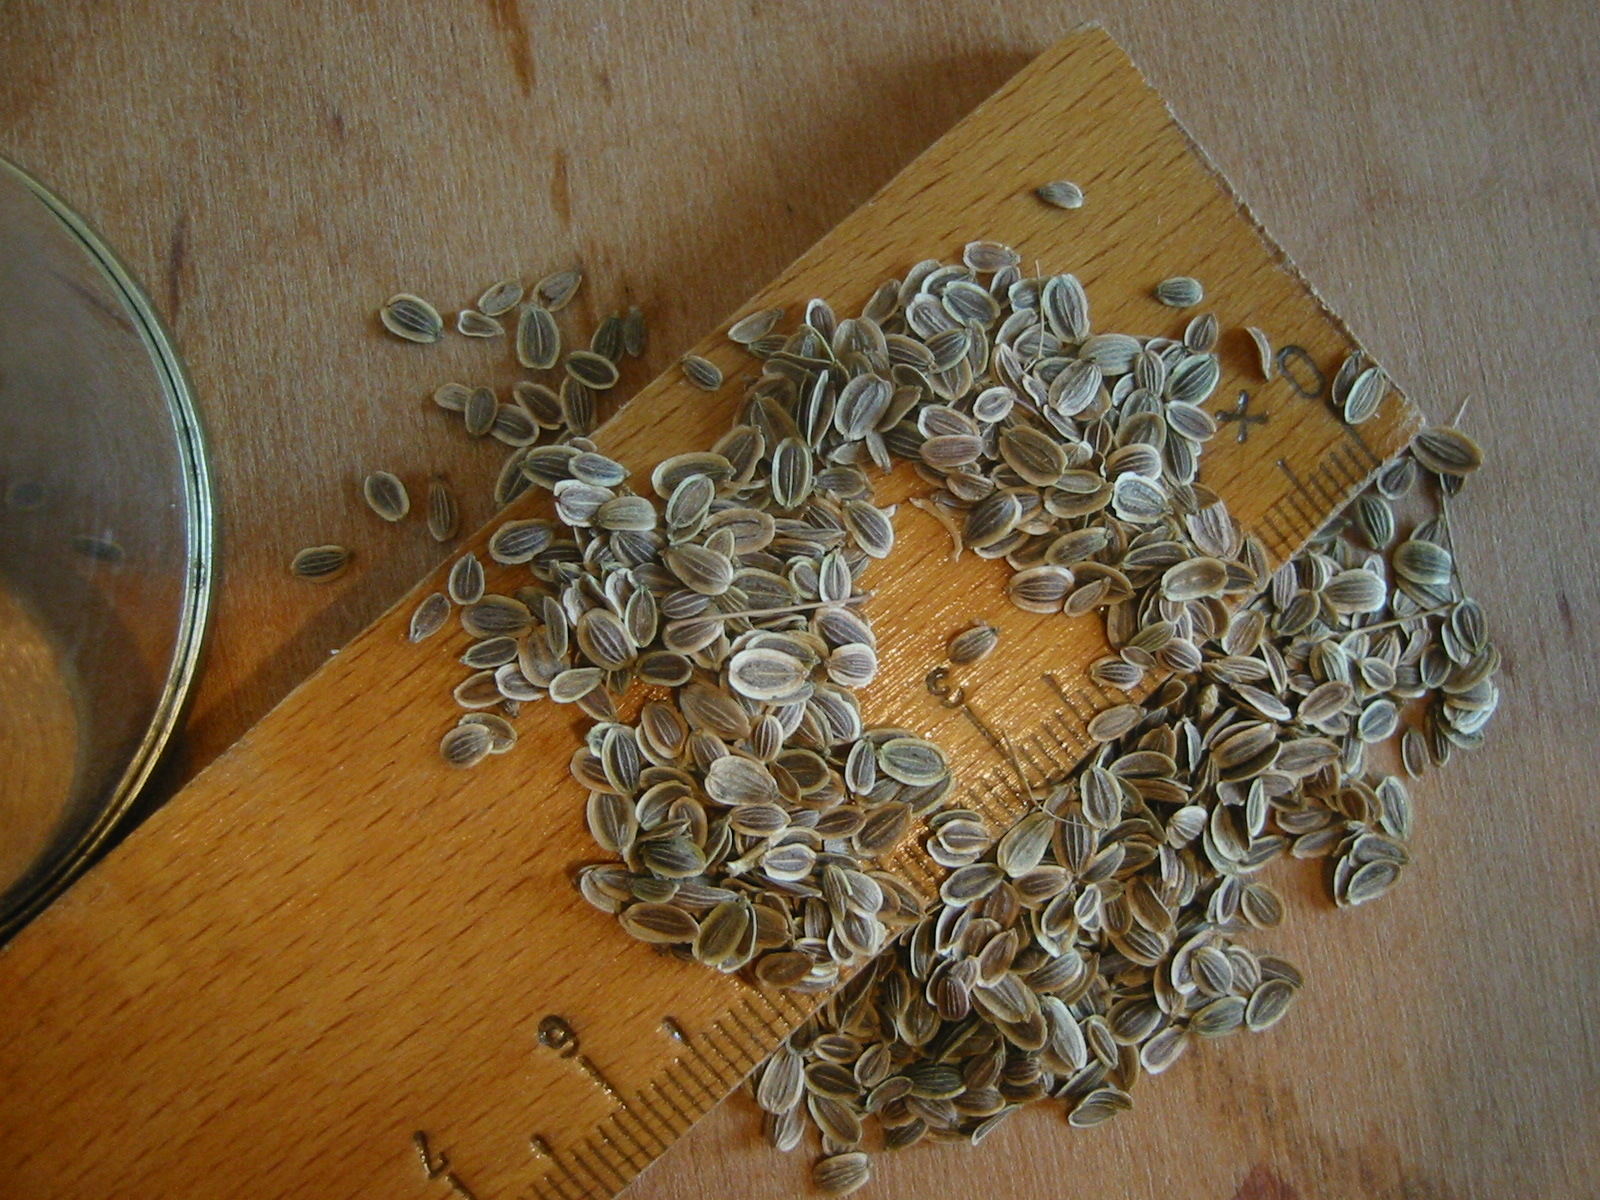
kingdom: Plantae
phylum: Tracheophyta
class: Magnoliopsida
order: Apiales
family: Apiaceae
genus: Anethum
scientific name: Anethum graveolens
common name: Dill
